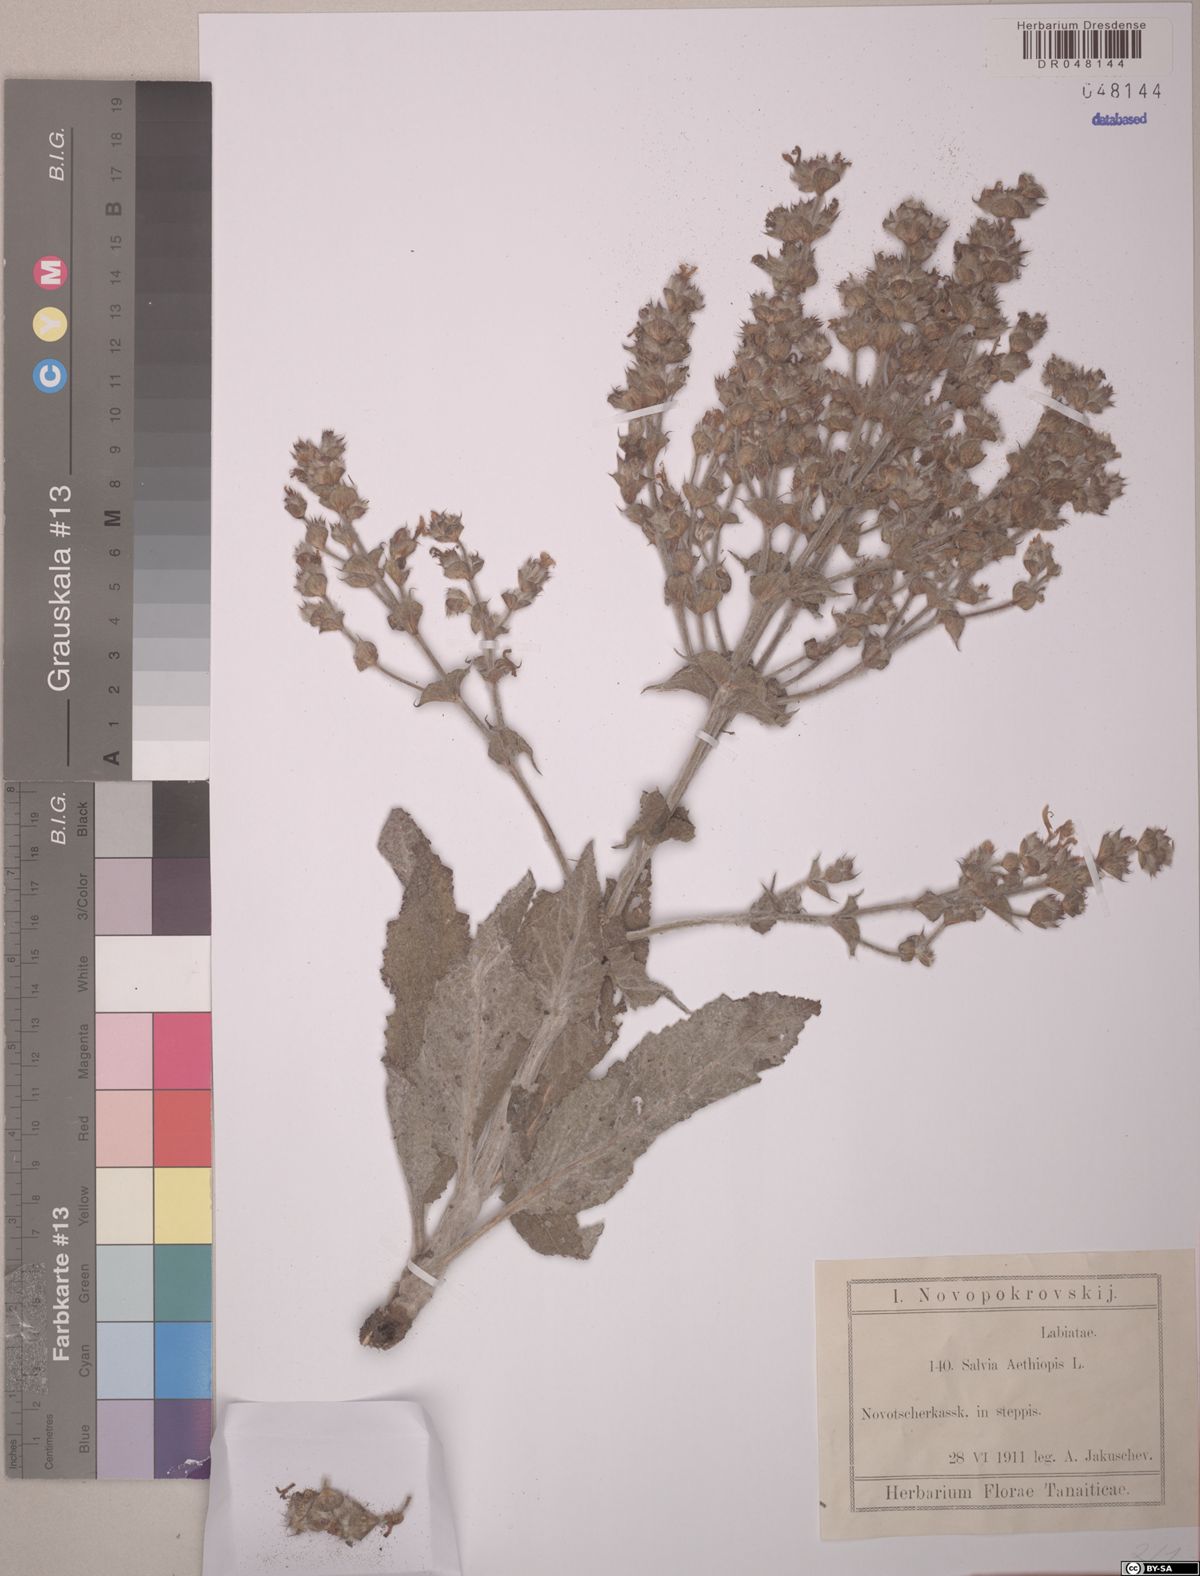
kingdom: Plantae
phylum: Tracheophyta
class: Magnoliopsida
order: Lamiales
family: Lamiaceae
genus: Salvia
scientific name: Salvia aethiopis
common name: Mediterranean sage
